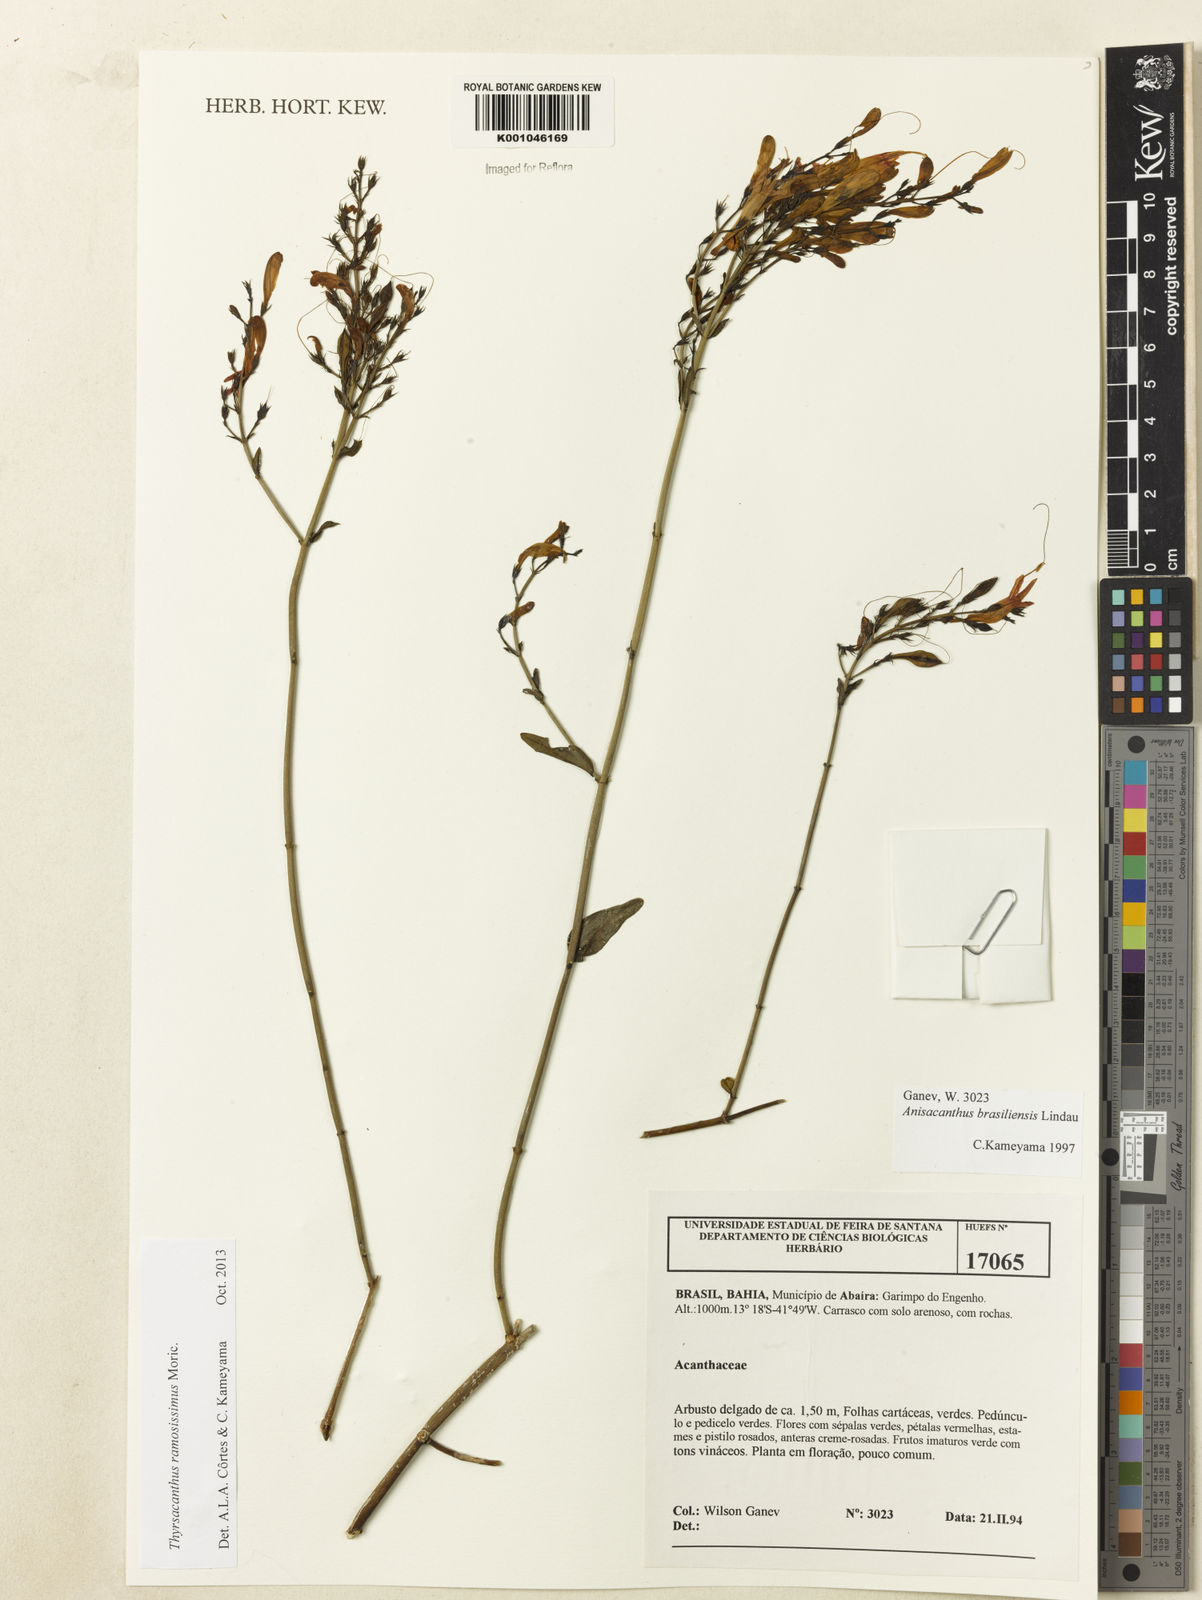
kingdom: Plantae
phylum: Tracheophyta
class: Magnoliopsida
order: Lamiales
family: Acanthaceae
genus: Thyrsacanthus
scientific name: Thyrsacanthus ramosissimus
